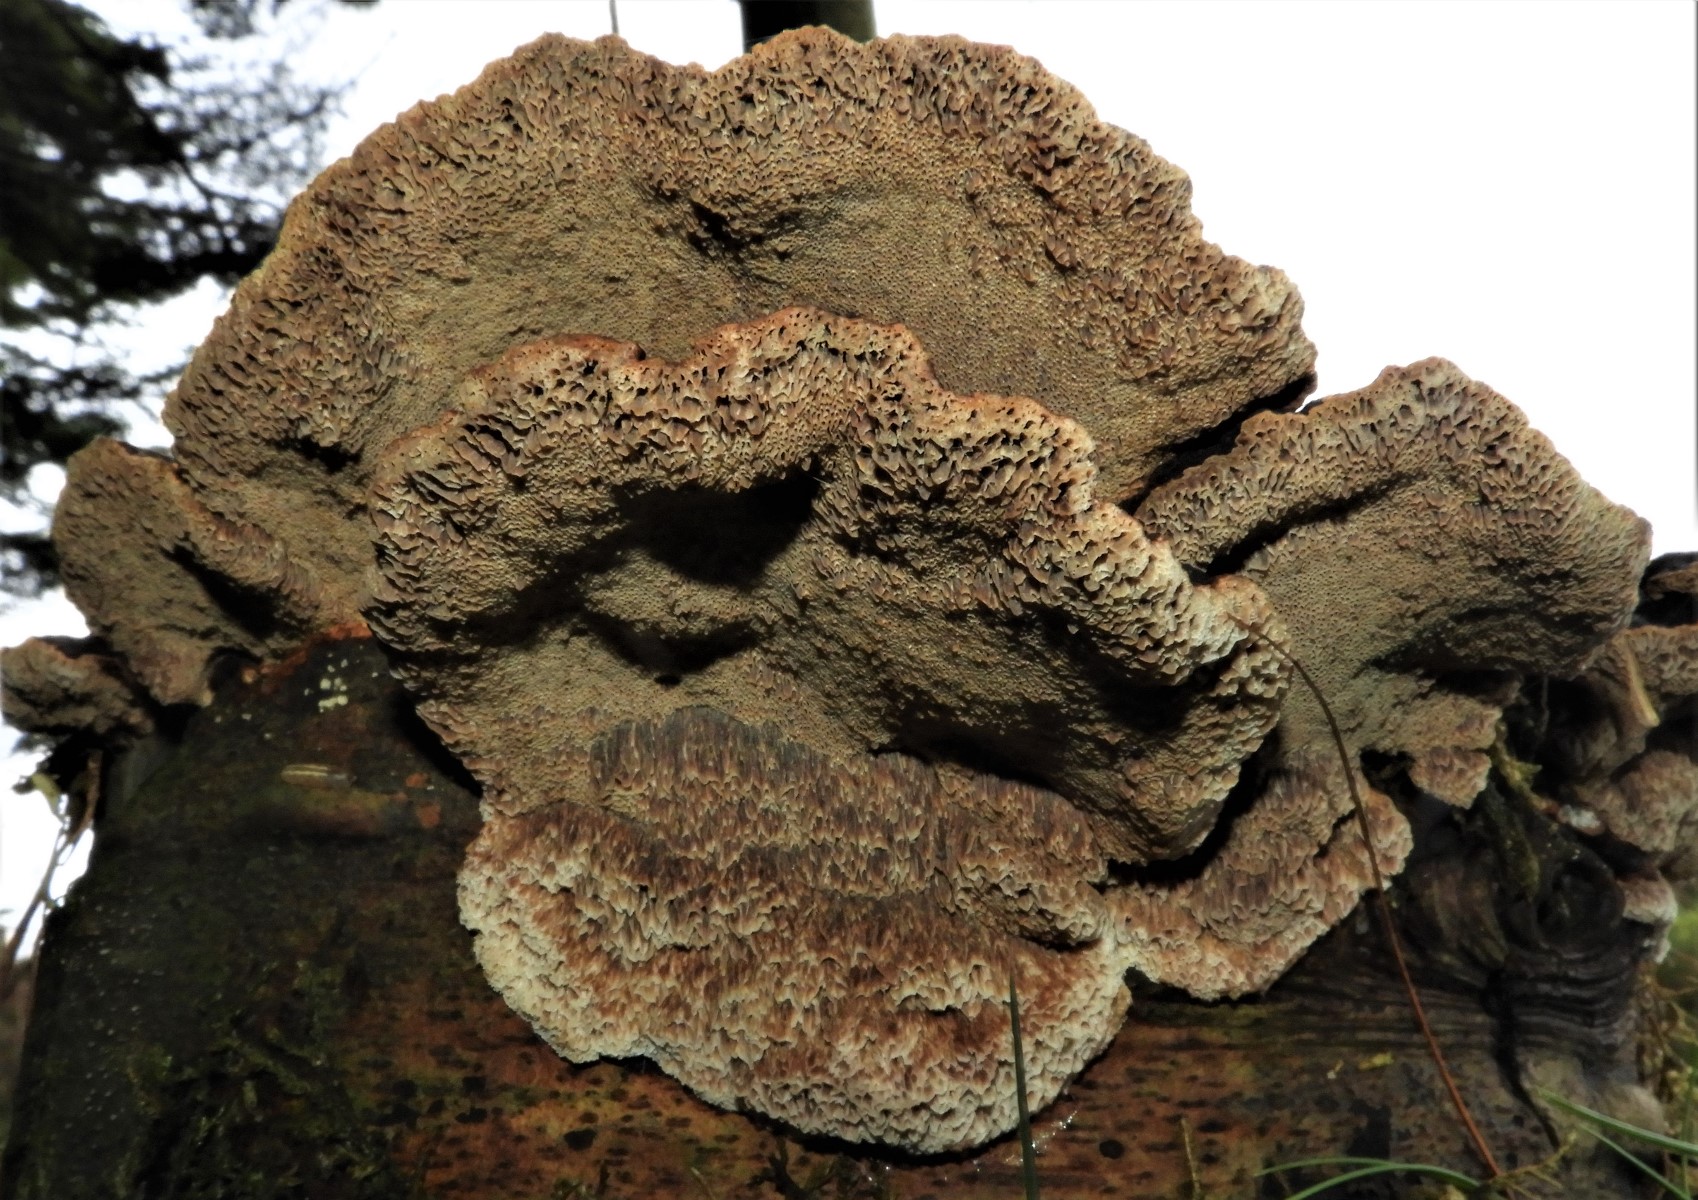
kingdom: Fungi
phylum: Basidiomycota
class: Agaricomycetes
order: Polyporales
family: Ischnodermataceae
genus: Ischnoderma
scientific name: Ischnoderma benzoinum
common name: gran-tjæreporesvamp
